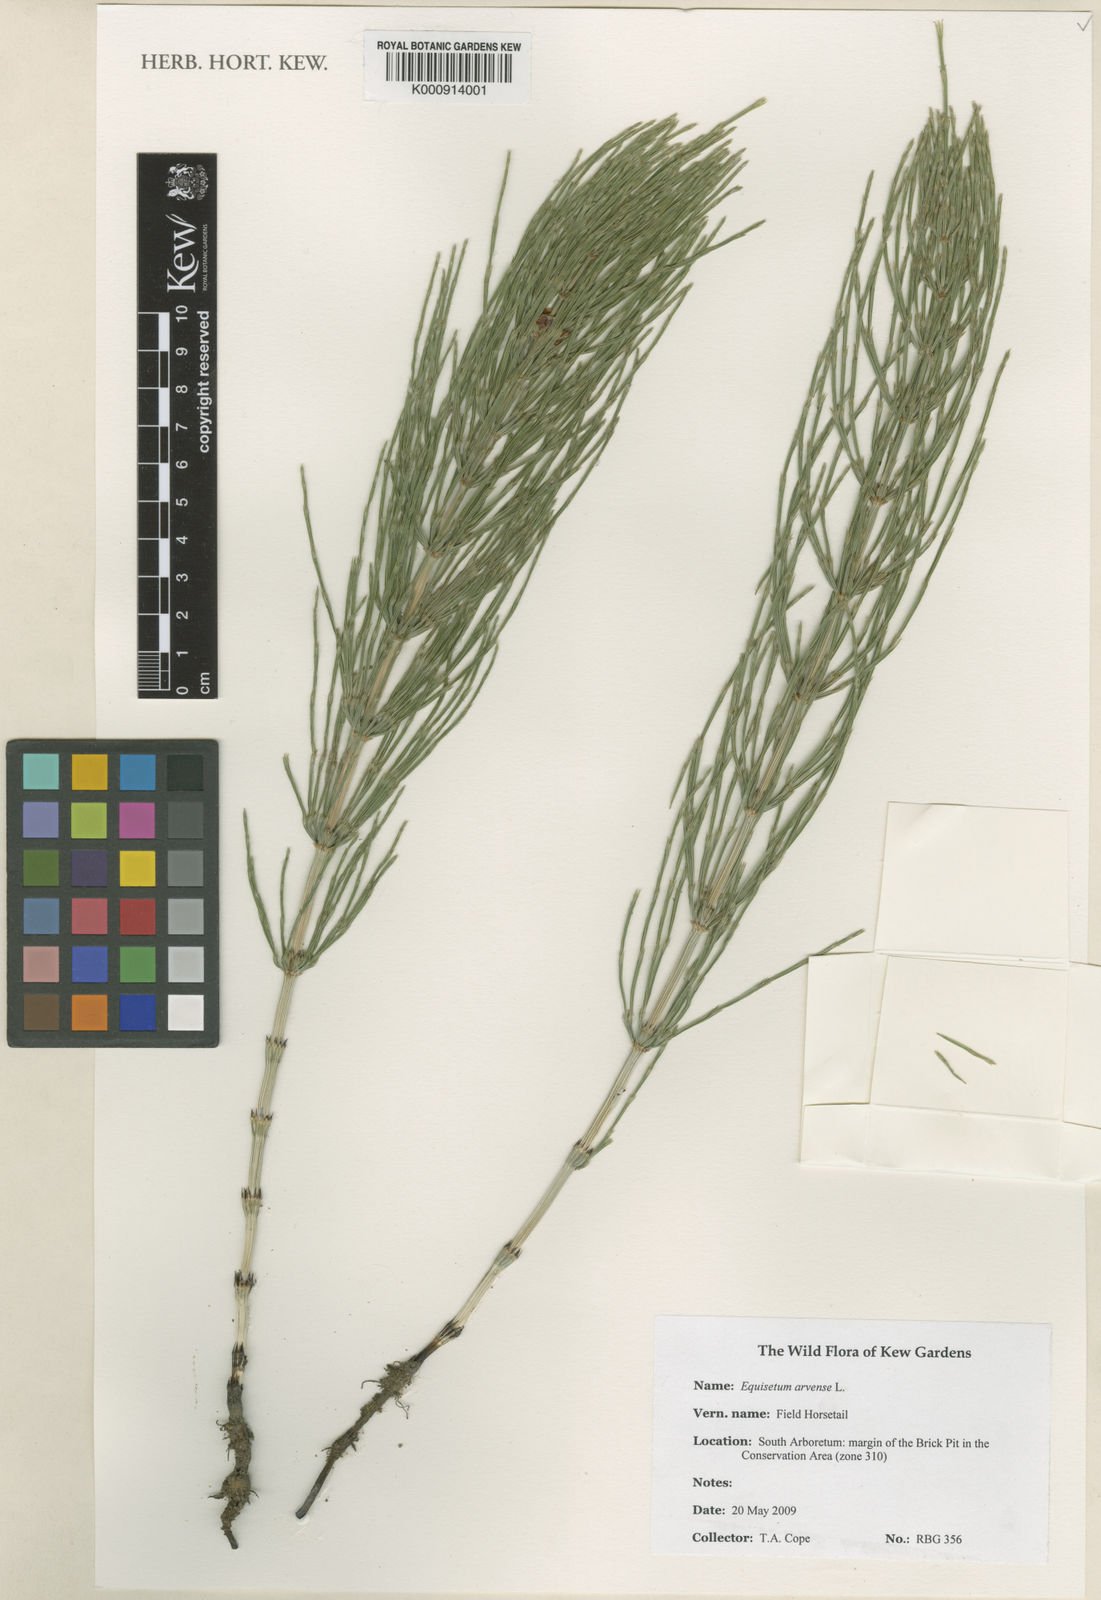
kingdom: Plantae
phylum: Tracheophyta
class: Polypodiopsida
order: Equisetales
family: Equisetaceae
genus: Equisetum
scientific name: Equisetum arvense
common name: Field horsetail
